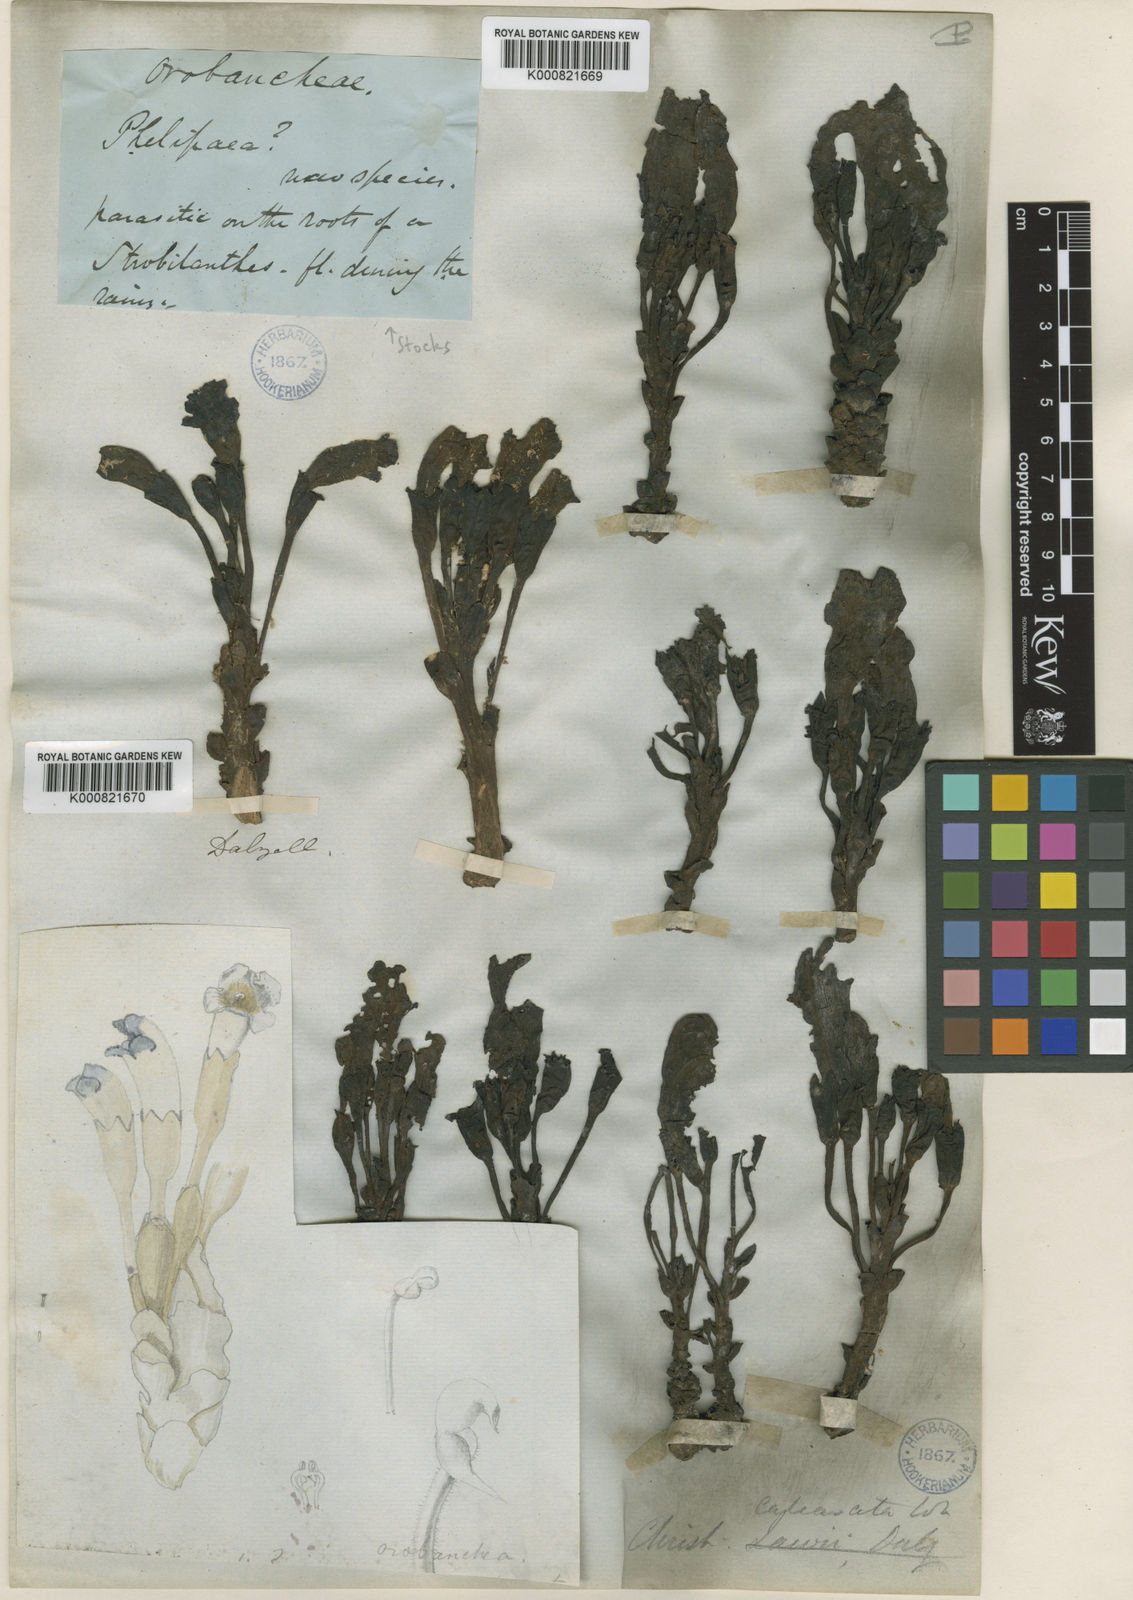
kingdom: Plantae
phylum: Tracheophyta
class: Magnoliopsida
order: Lamiales
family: Orobanchaceae
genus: Christisonia
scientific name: Christisonia calcarata
